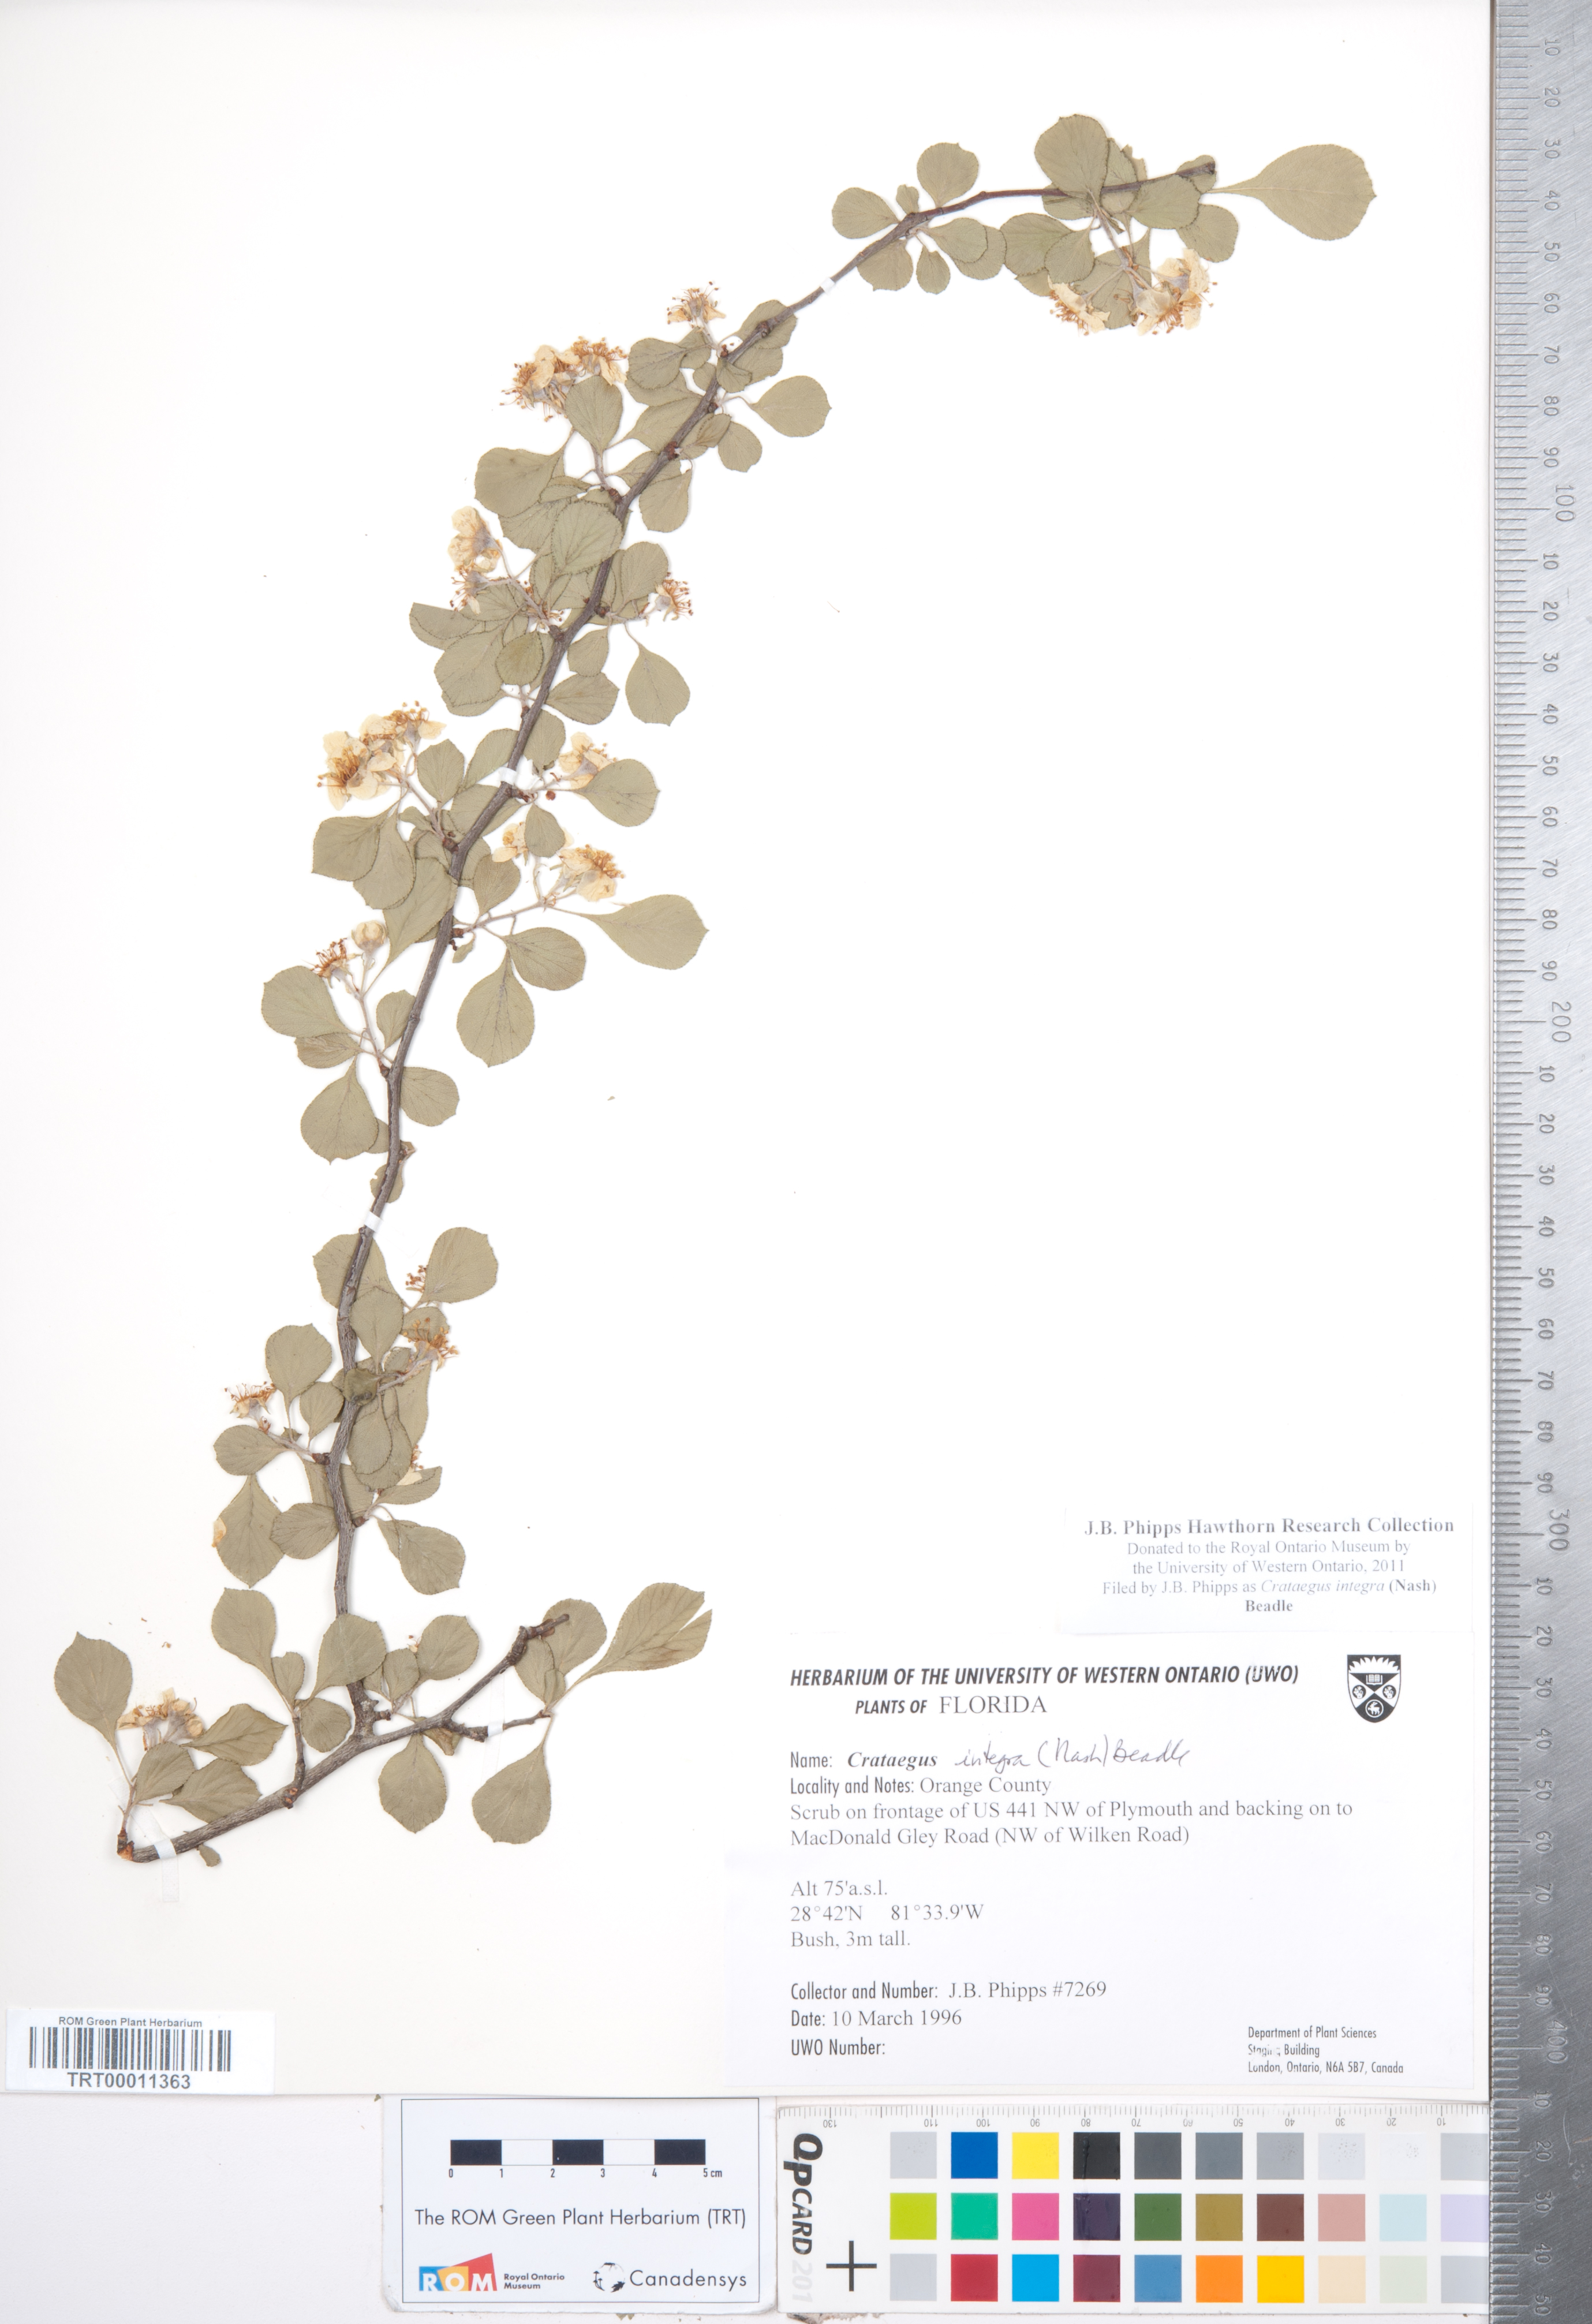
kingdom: Plantae
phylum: Tracheophyta
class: Magnoliopsida
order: Rosales
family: Rosaceae
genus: Crataegus
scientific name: Crataegus lassa
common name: Florida hawthorn
